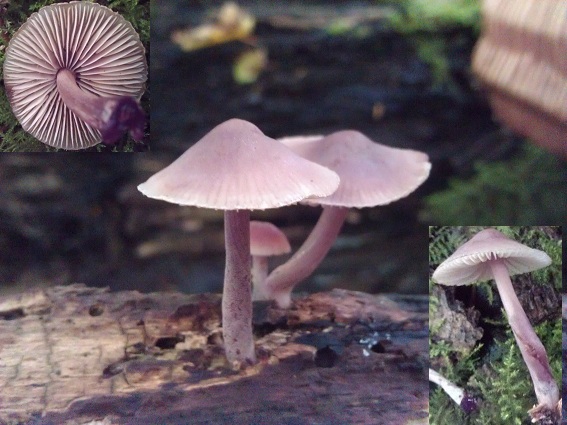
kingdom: Fungi
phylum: Basidiomycota
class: Agaricomycetes
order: Agaricales
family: Mycenaceae
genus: Mycena
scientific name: Mycena haematopus
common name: blødende huesvamp
